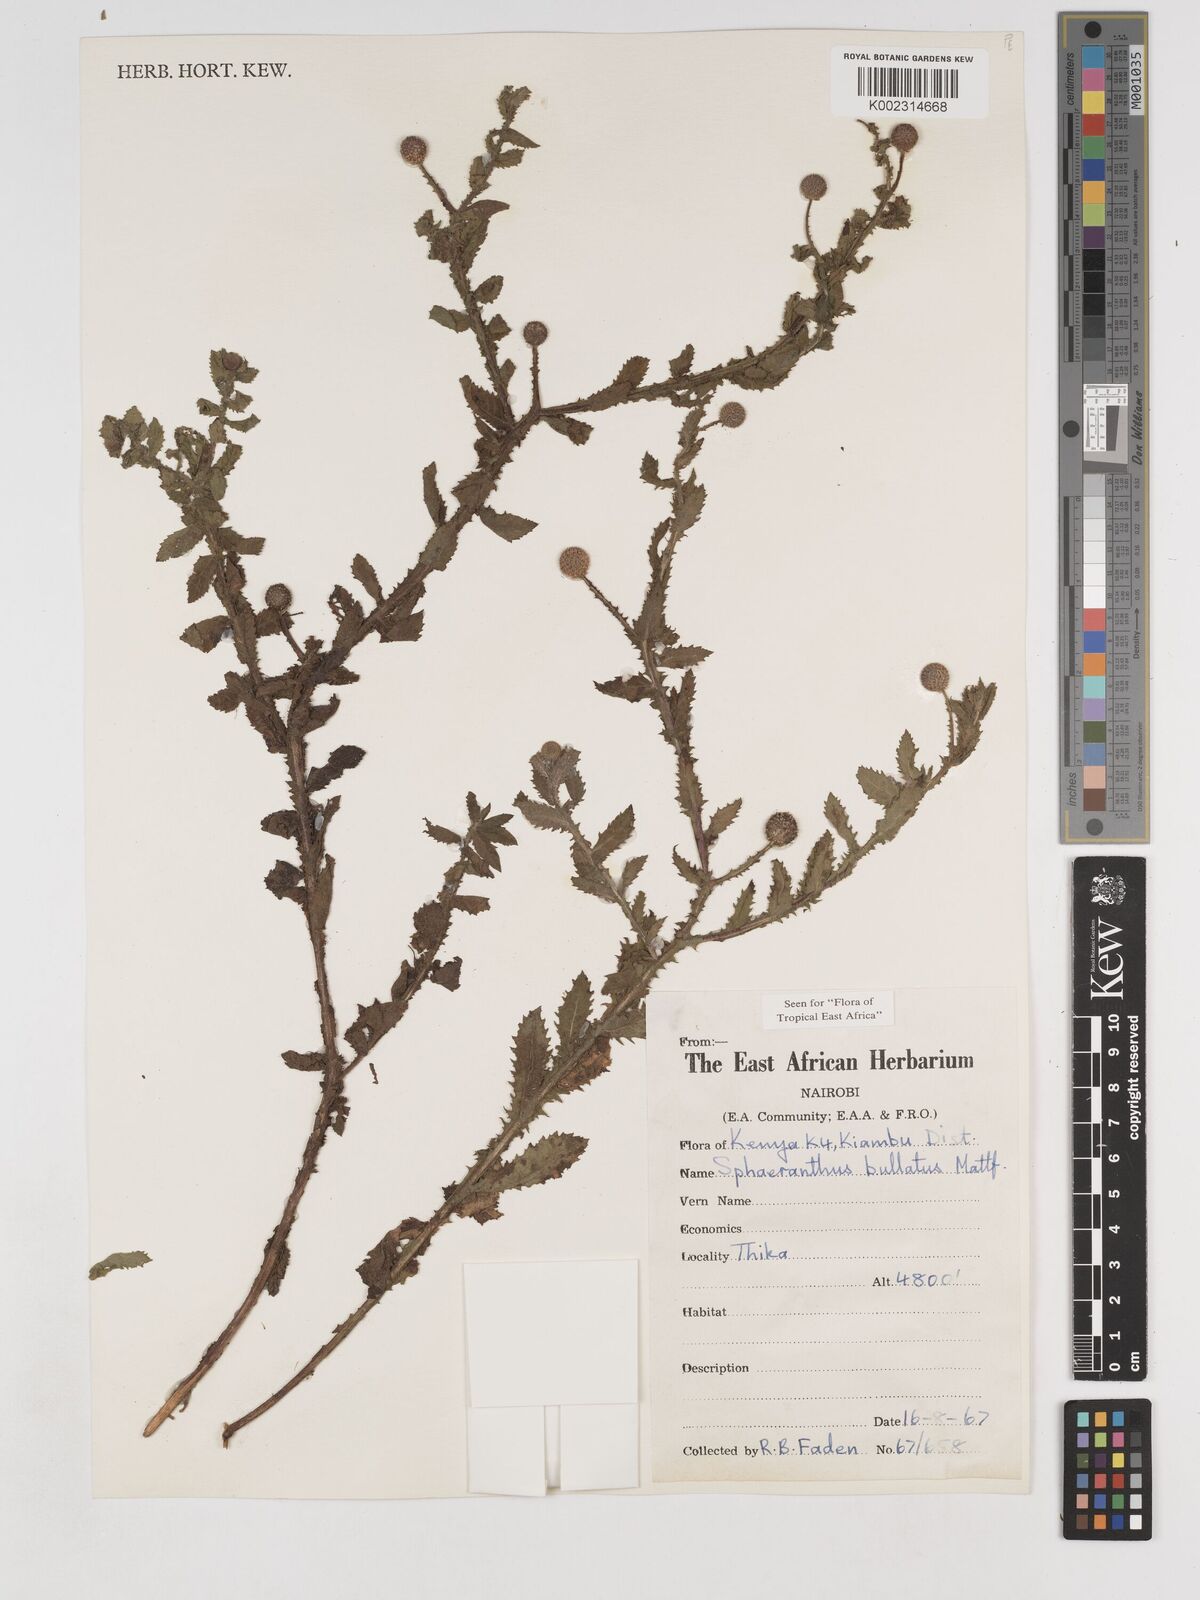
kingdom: Plantae
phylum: Tracheophyta
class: Magnoliopsida
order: Asterales
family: Asteraceae
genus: Sphaeranthus
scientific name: Sphaeranthus bullatus
